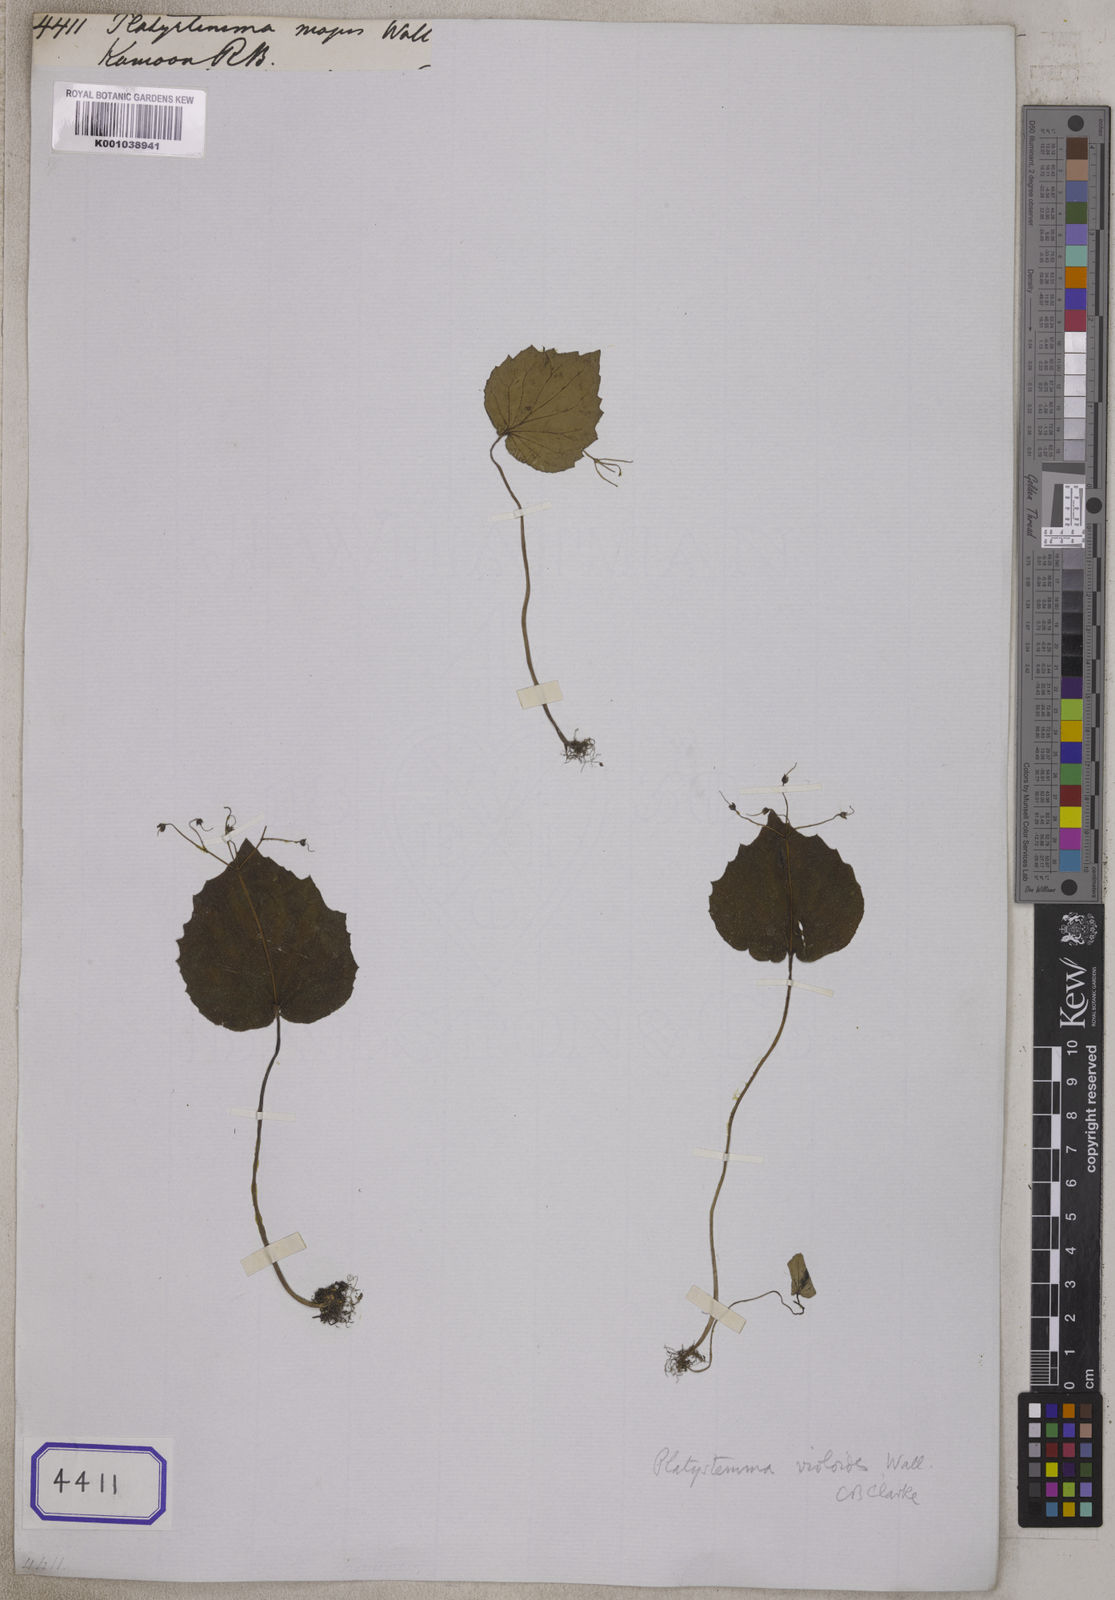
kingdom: Plantae
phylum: Tracheophyta
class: Magnoliopsida
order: Lamiales
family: Gesneriaceae
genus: Platystemma
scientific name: Platystemma violoides
